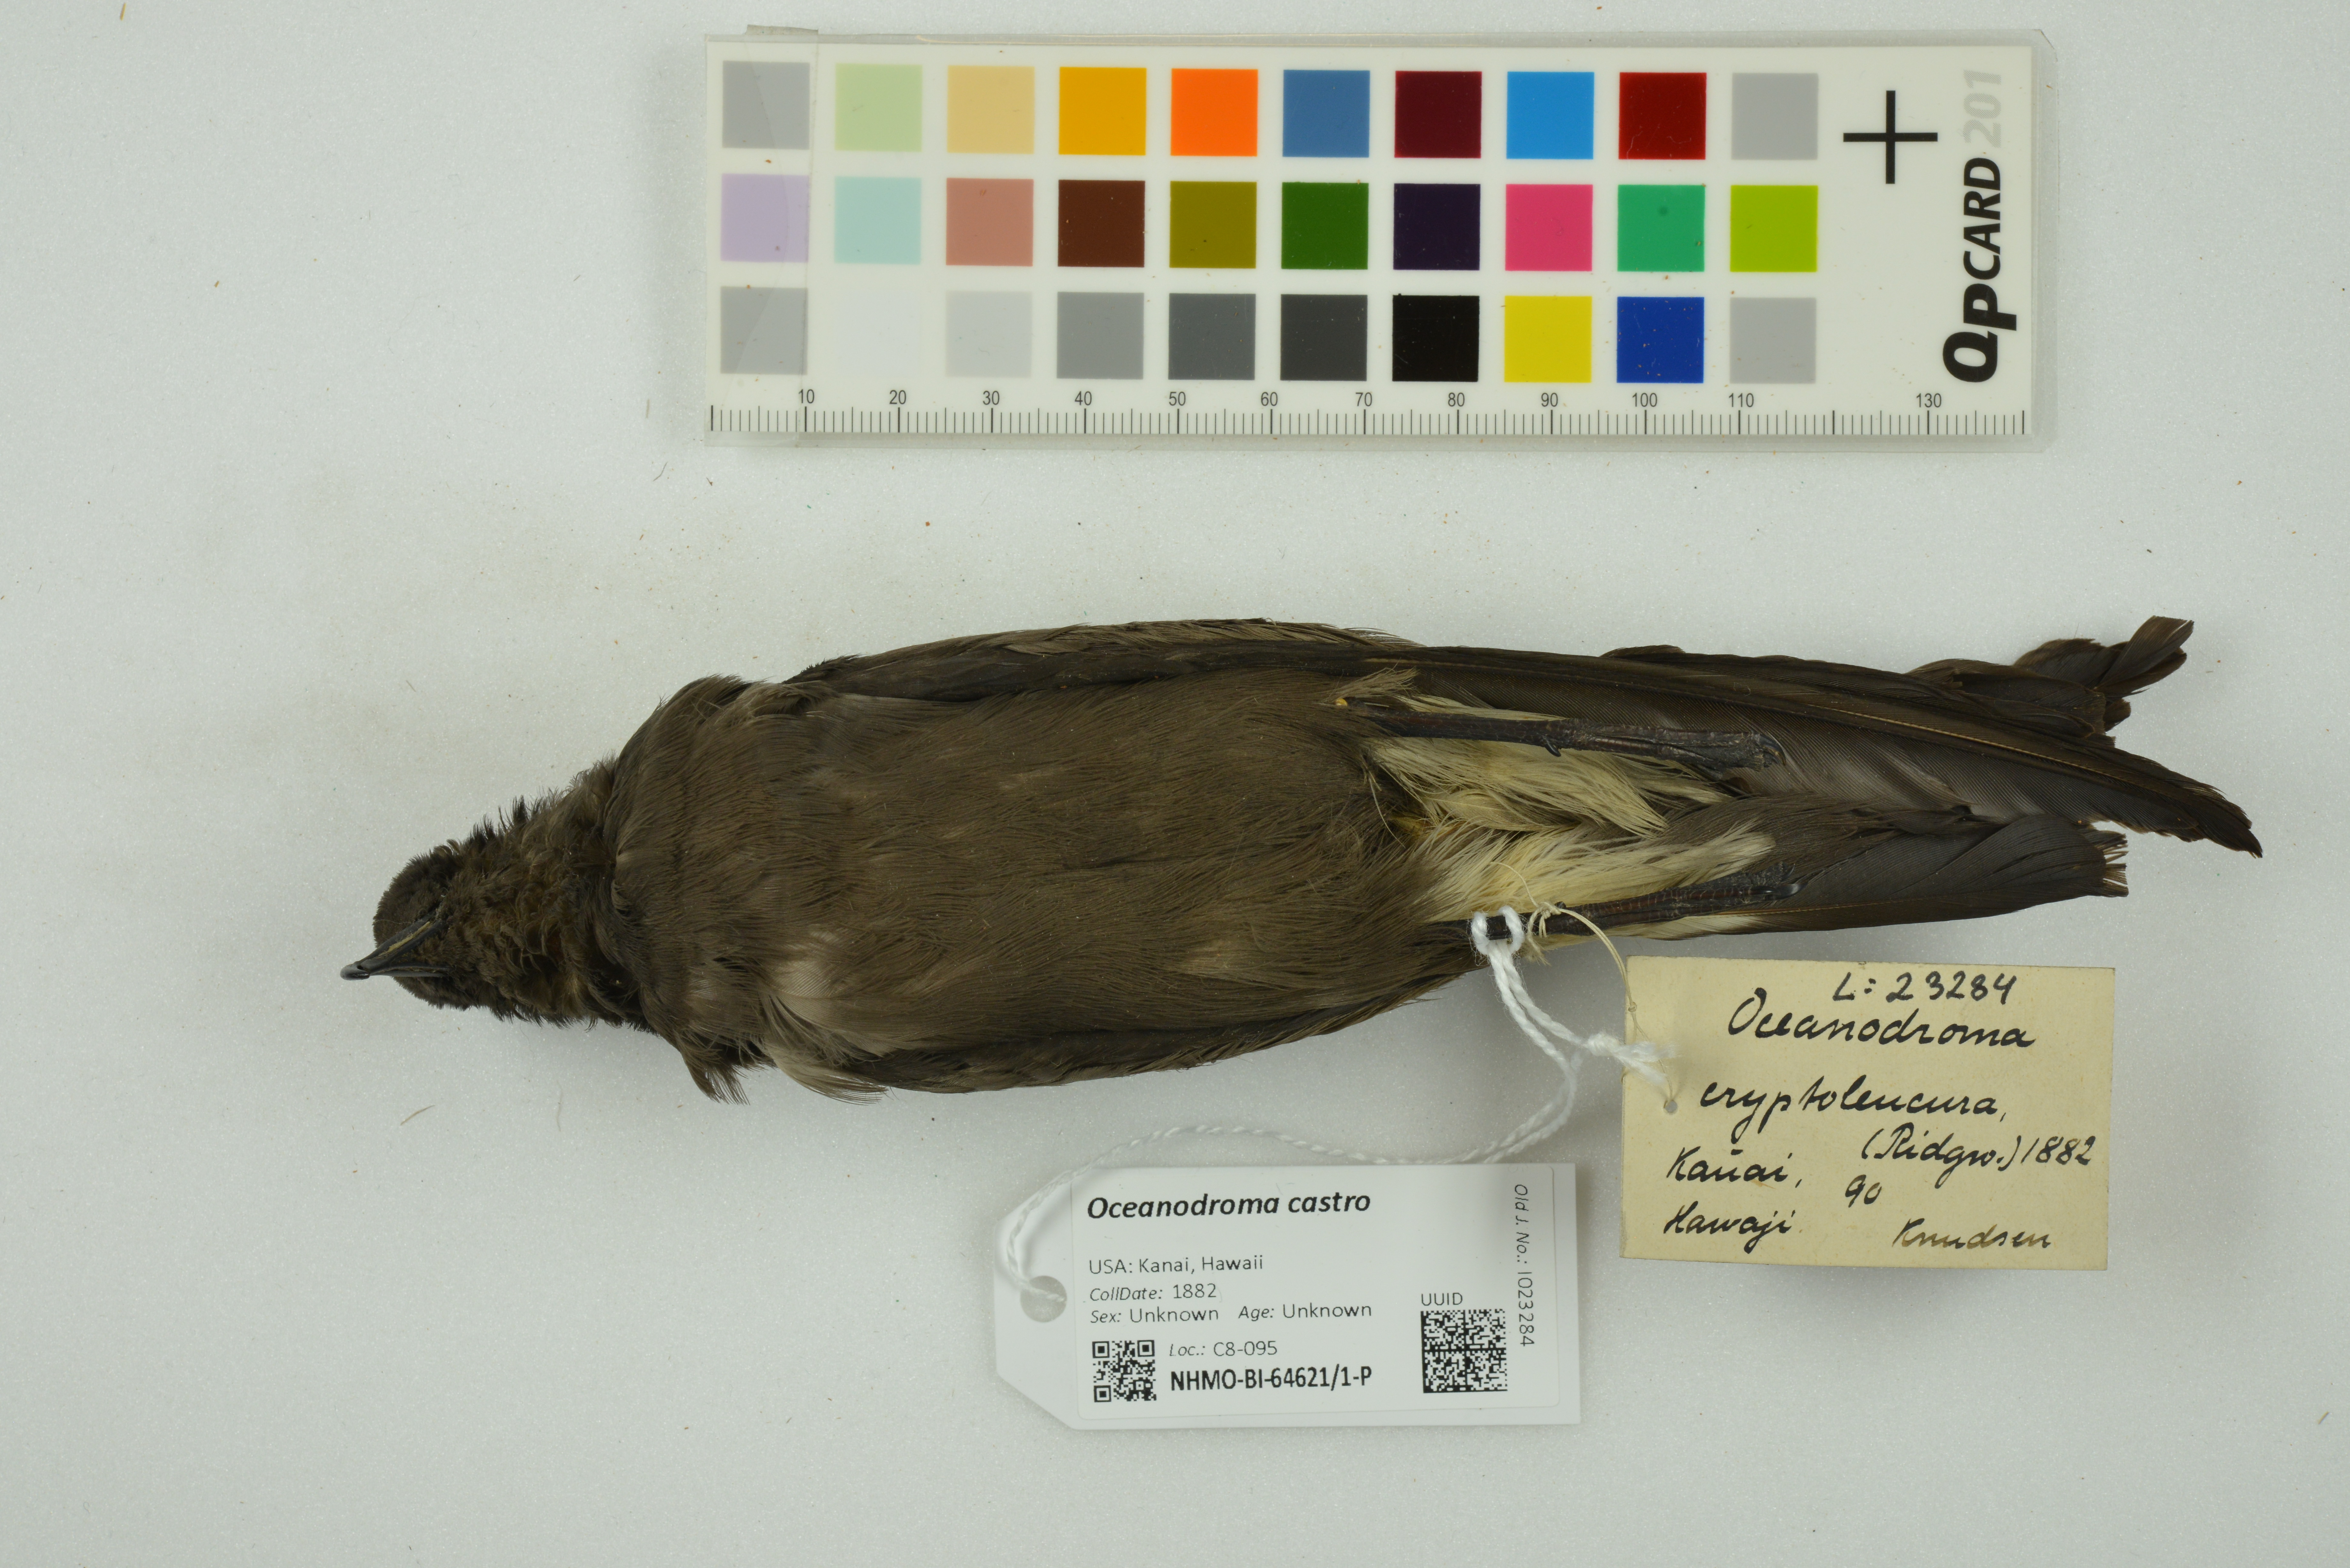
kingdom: Animalia
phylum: Chordata
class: Aves
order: Procellariiformes
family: Hydrobatidae
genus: Oceanodroma
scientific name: Oceanodroma castro
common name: Band-rumped storm-petrel
